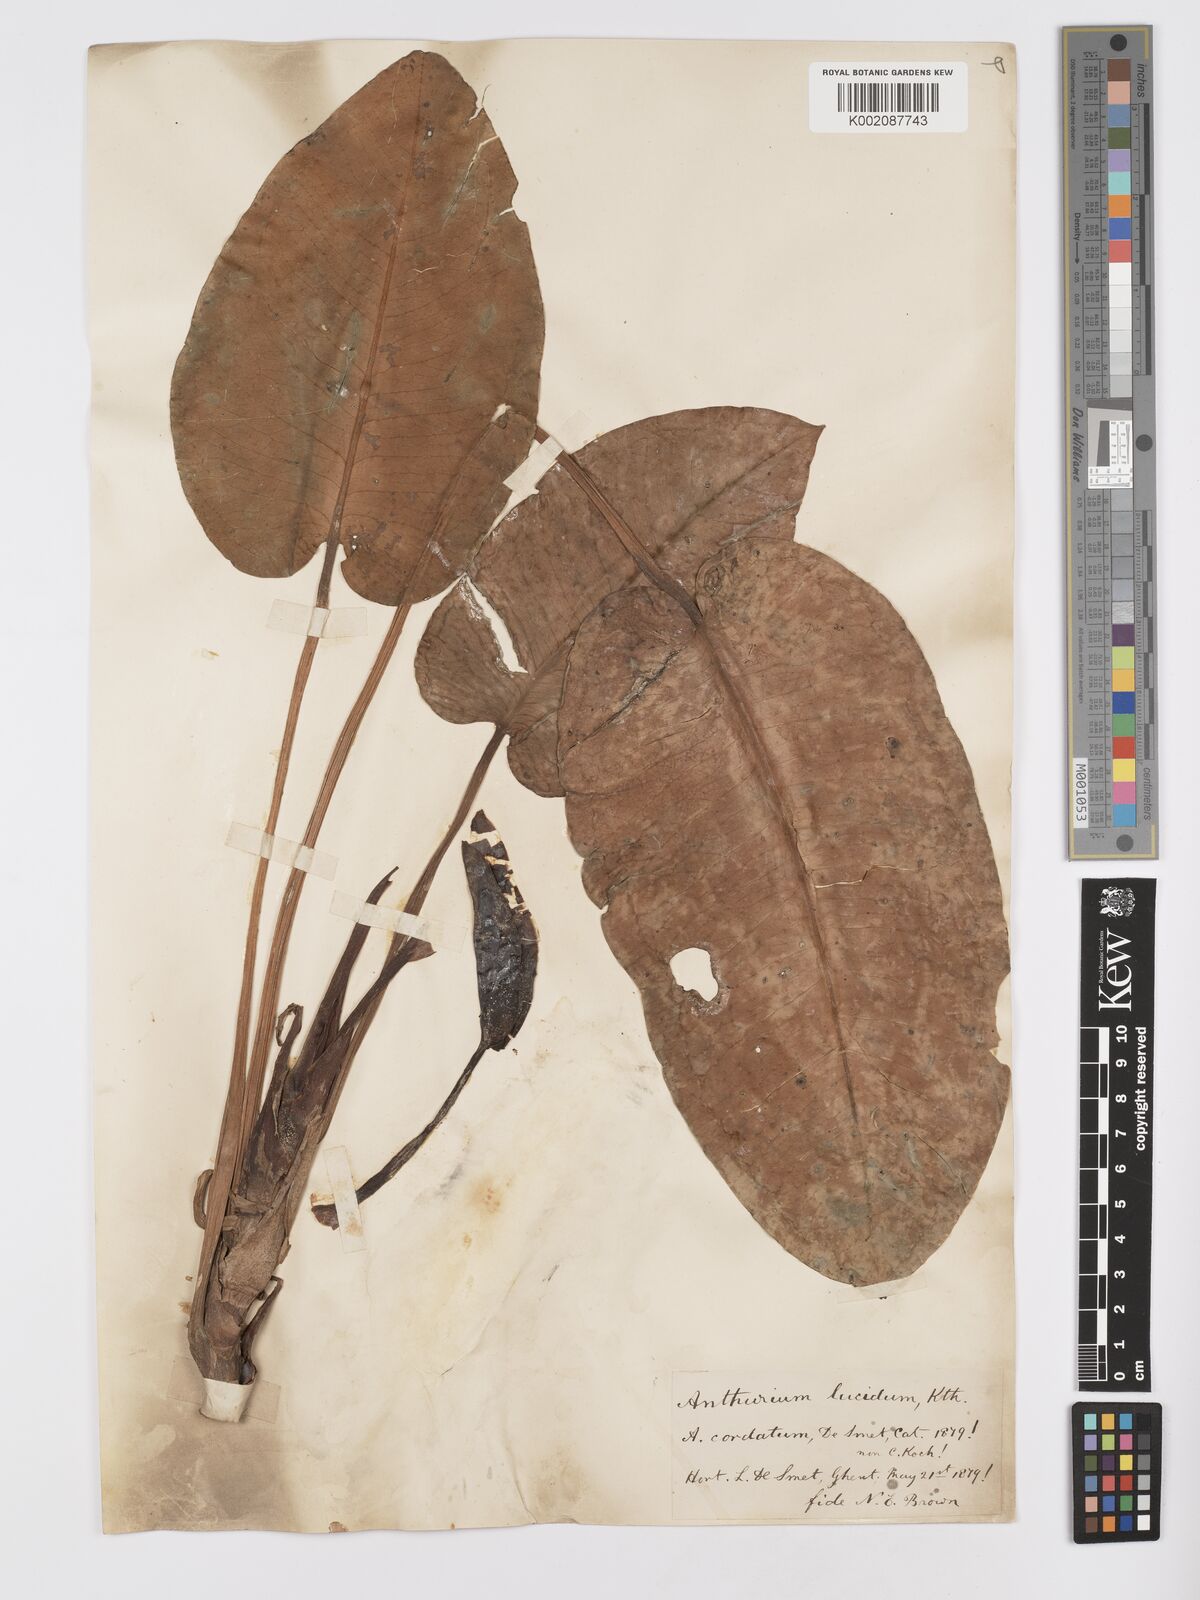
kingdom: Plantae
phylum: Tracheophyta
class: Liliopsida
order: Alismatales
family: Araceae
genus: Anthurium
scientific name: Anthurium lucidum
